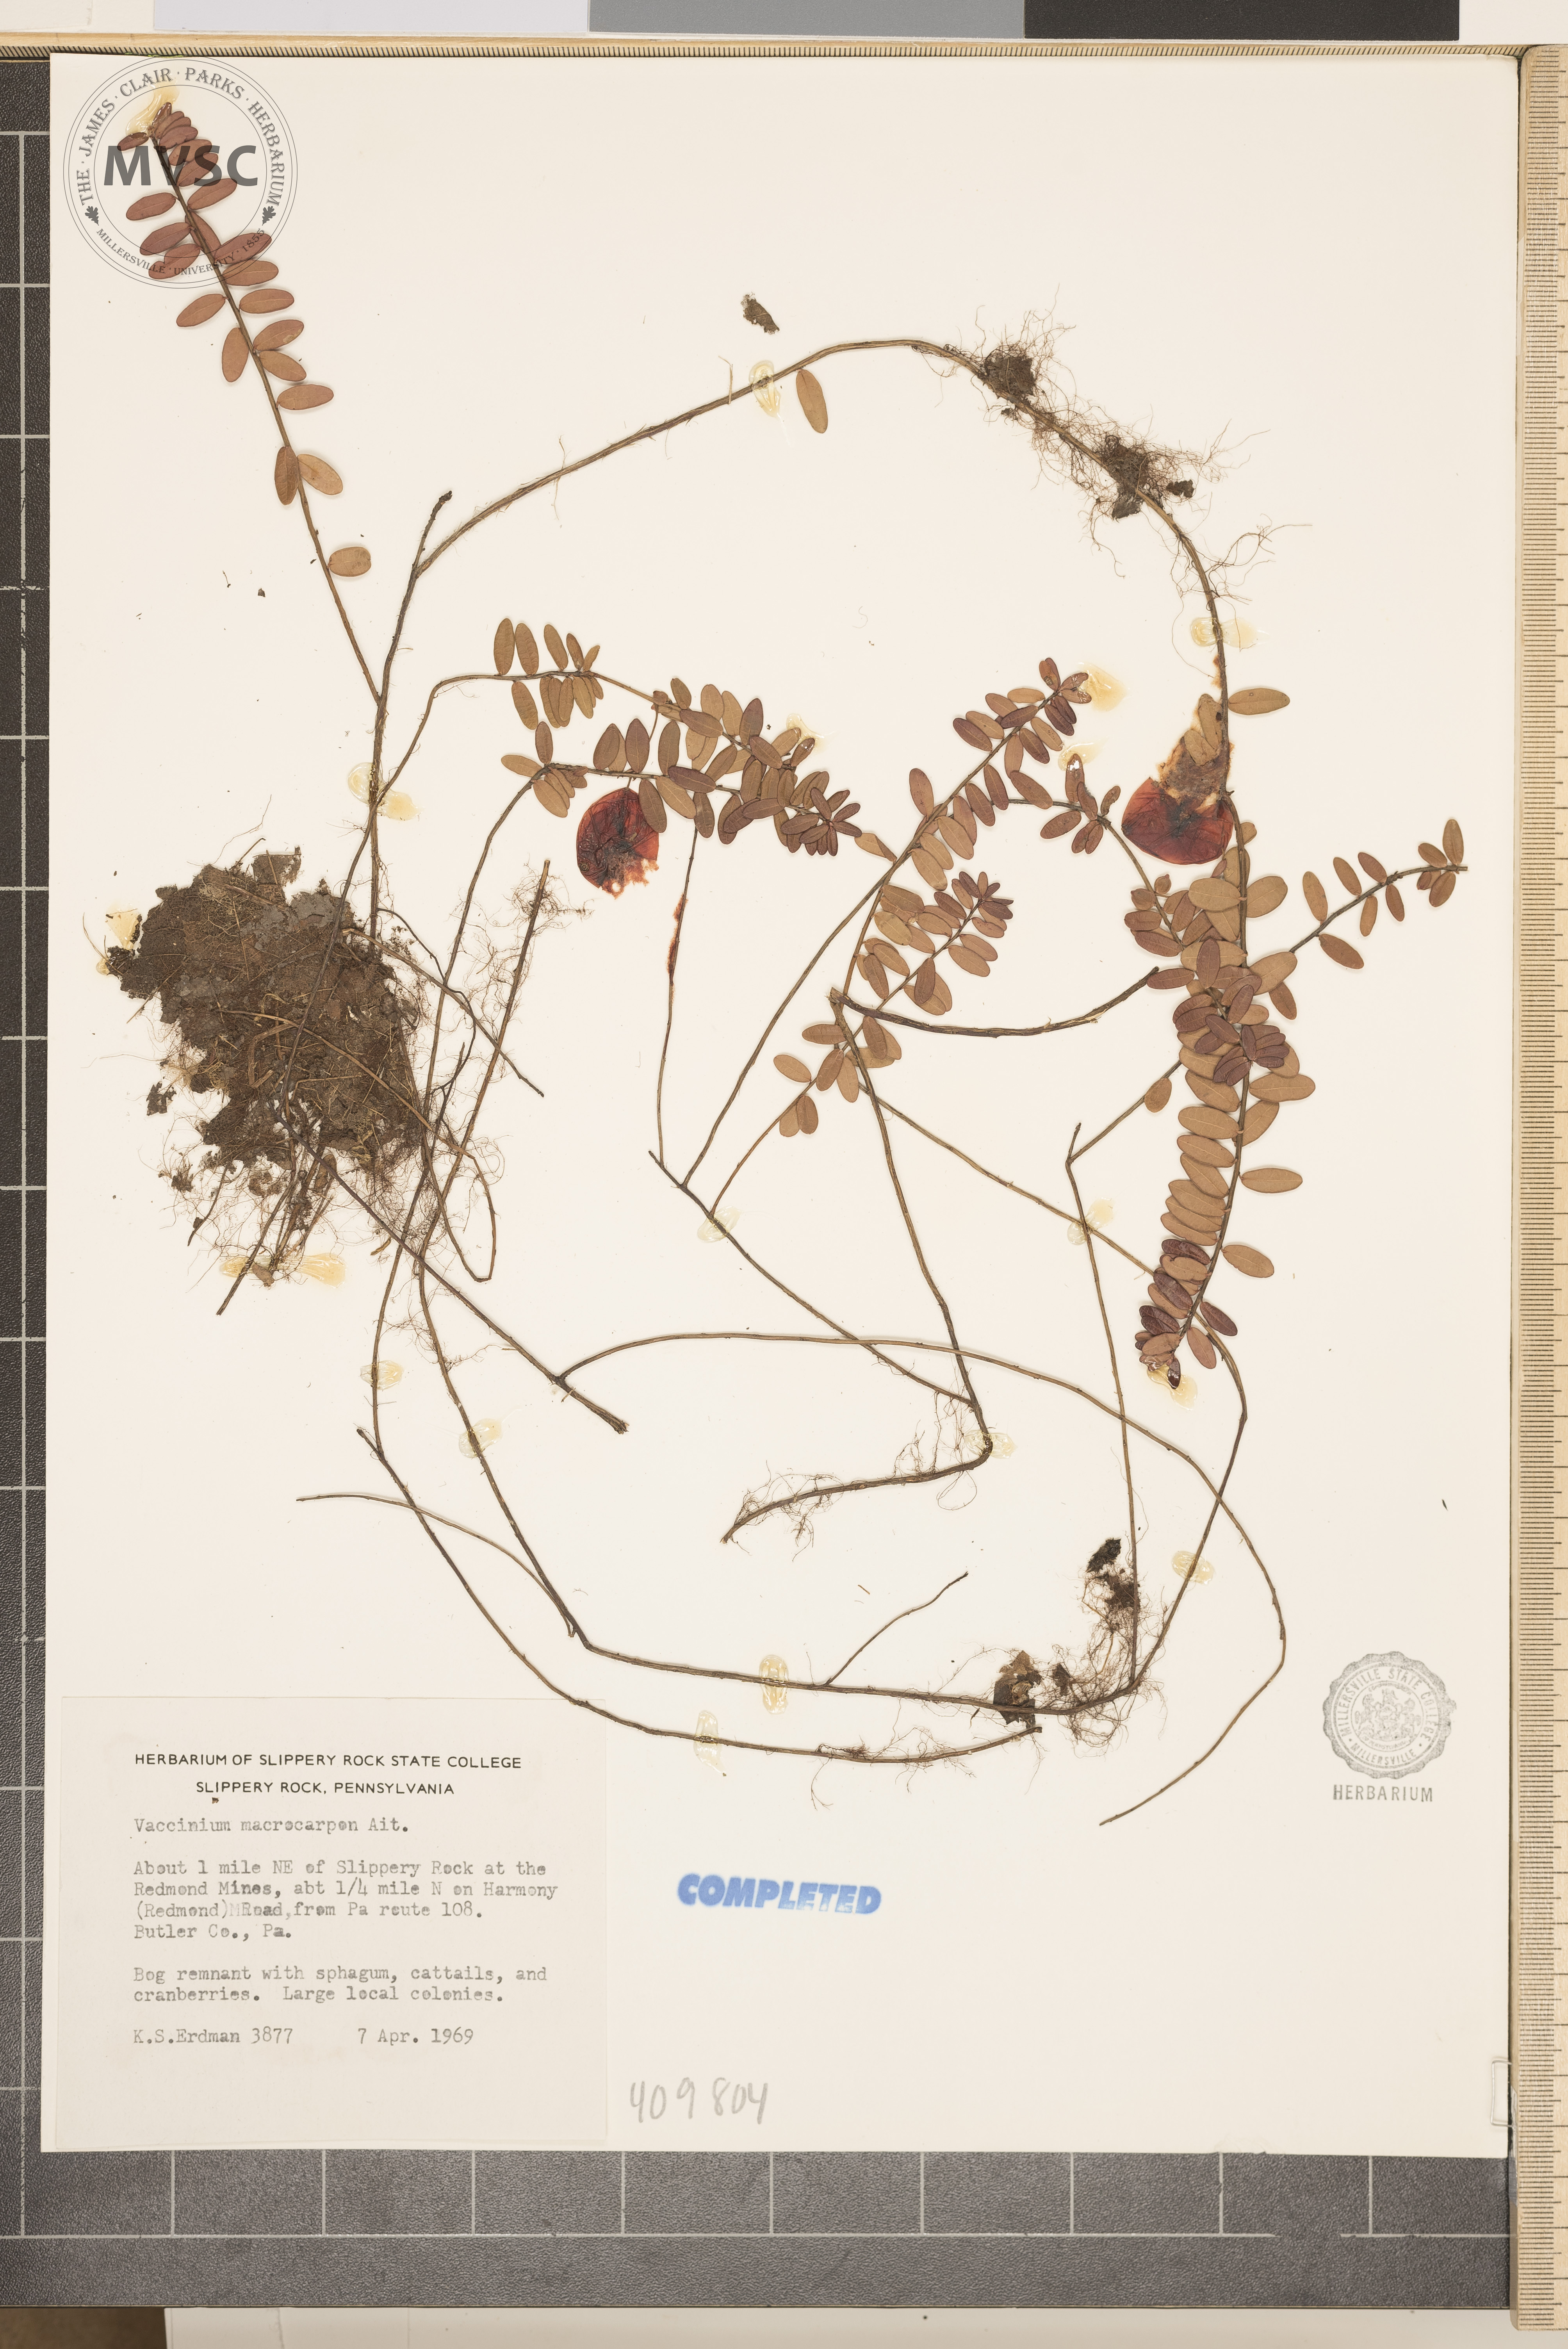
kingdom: Plantae
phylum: Tracheophyta
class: Magnoliopsida
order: Ericales
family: Ericaceae
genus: Vaccinium
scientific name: Vaccinium macrocarpon
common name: American cranberry
